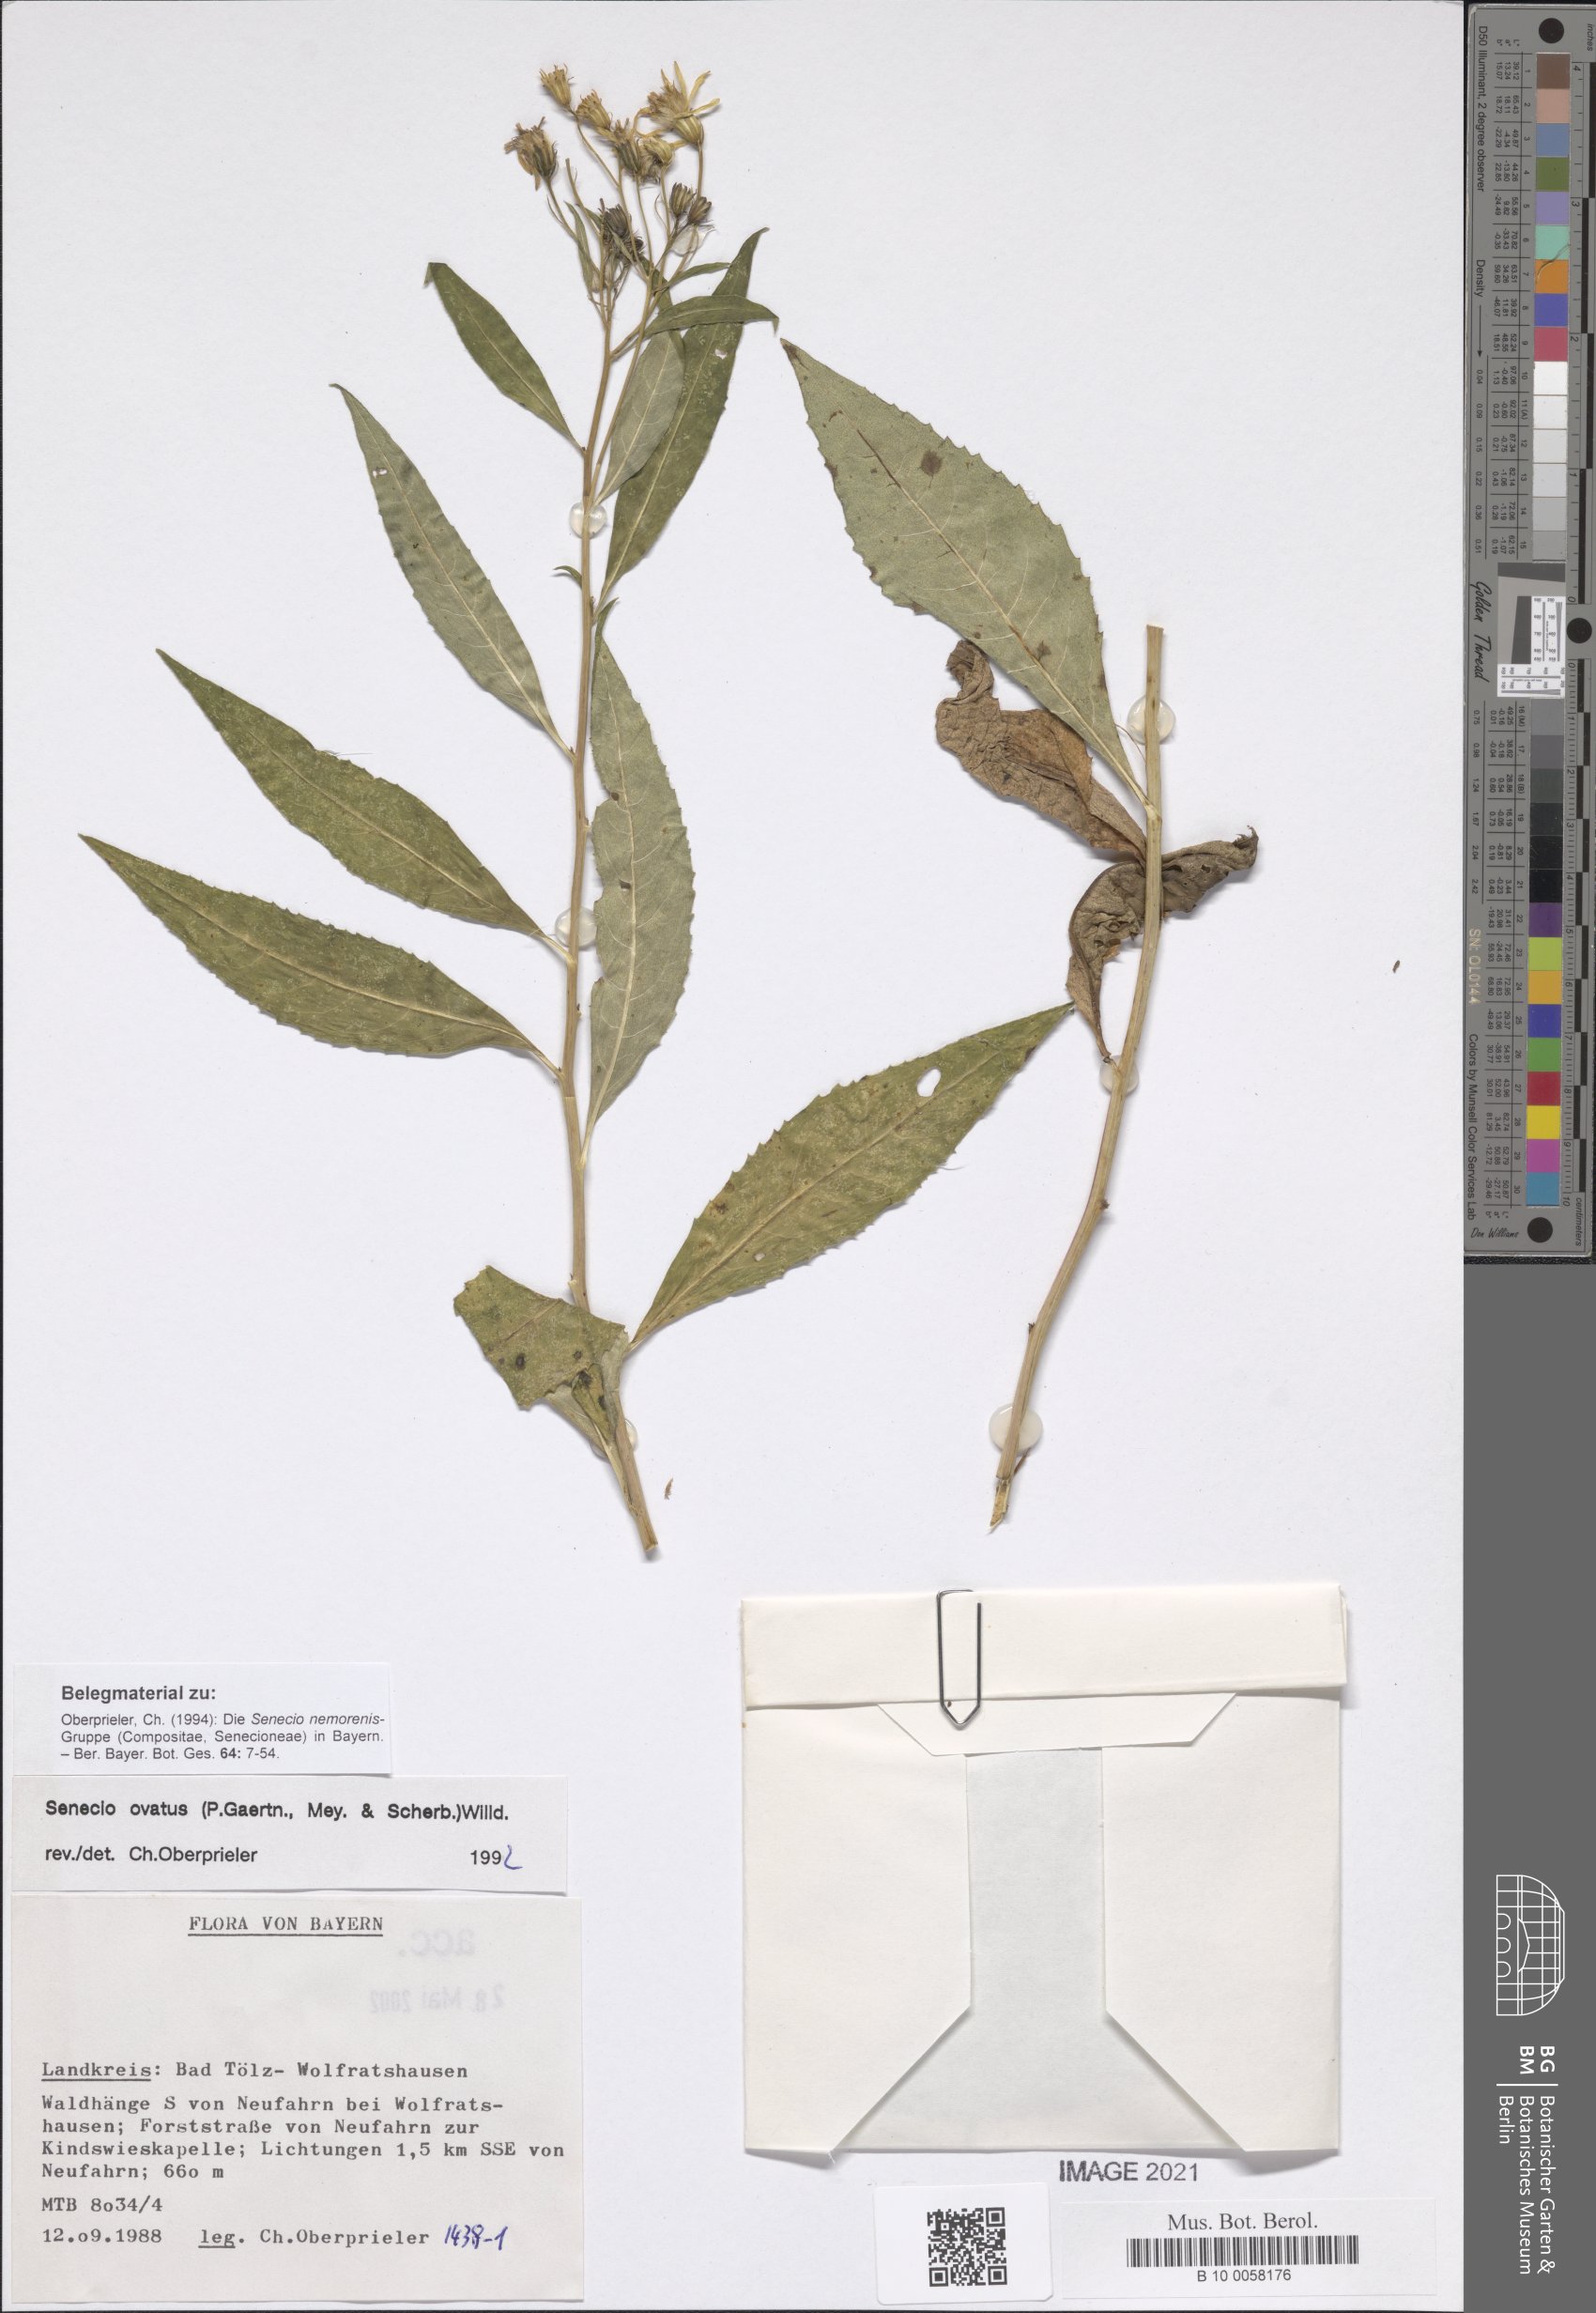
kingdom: Plantae
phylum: Tracheophyta
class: Magnoliopsida
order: Asterales
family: Asteraceae
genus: Senecio
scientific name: Senecio ovatus
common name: Wood ragwort
